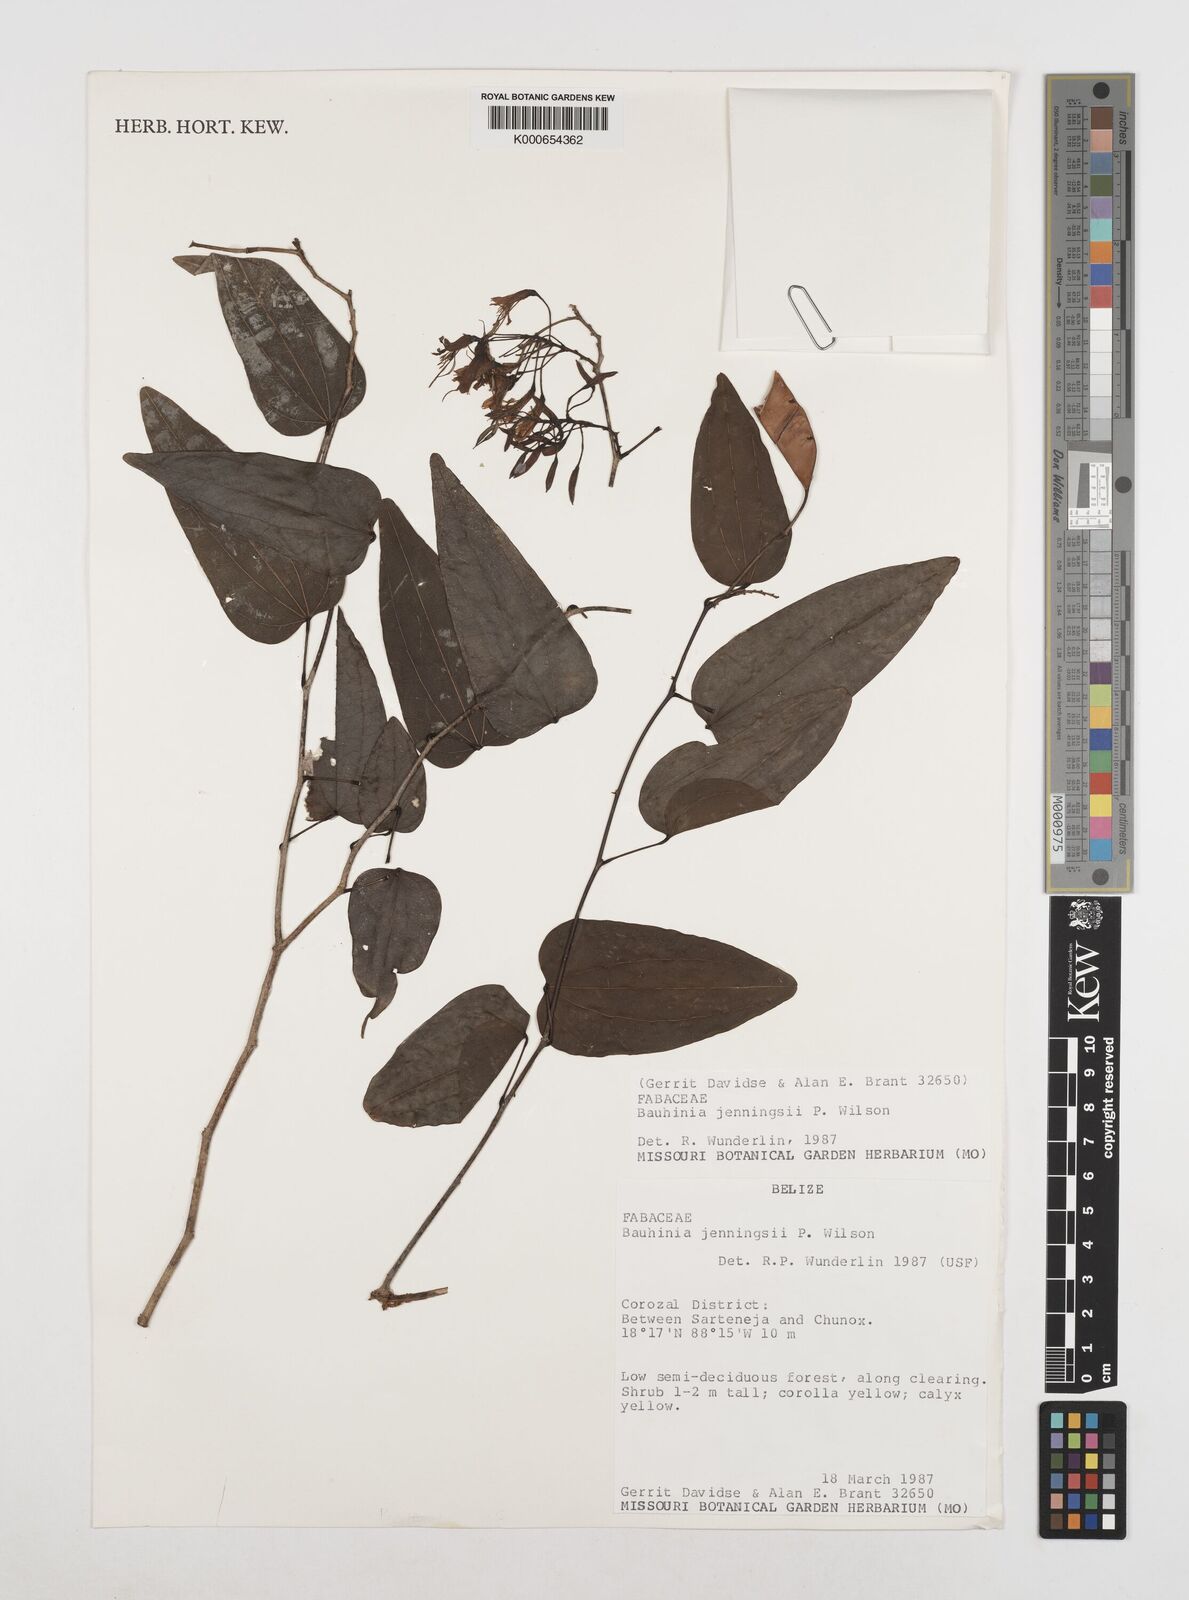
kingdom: Plantae
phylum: Tracheophyta
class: Magnoliopsida
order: Fabales
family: Fabaceae
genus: Bauhinia
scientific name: Bauhinia jenningsii
